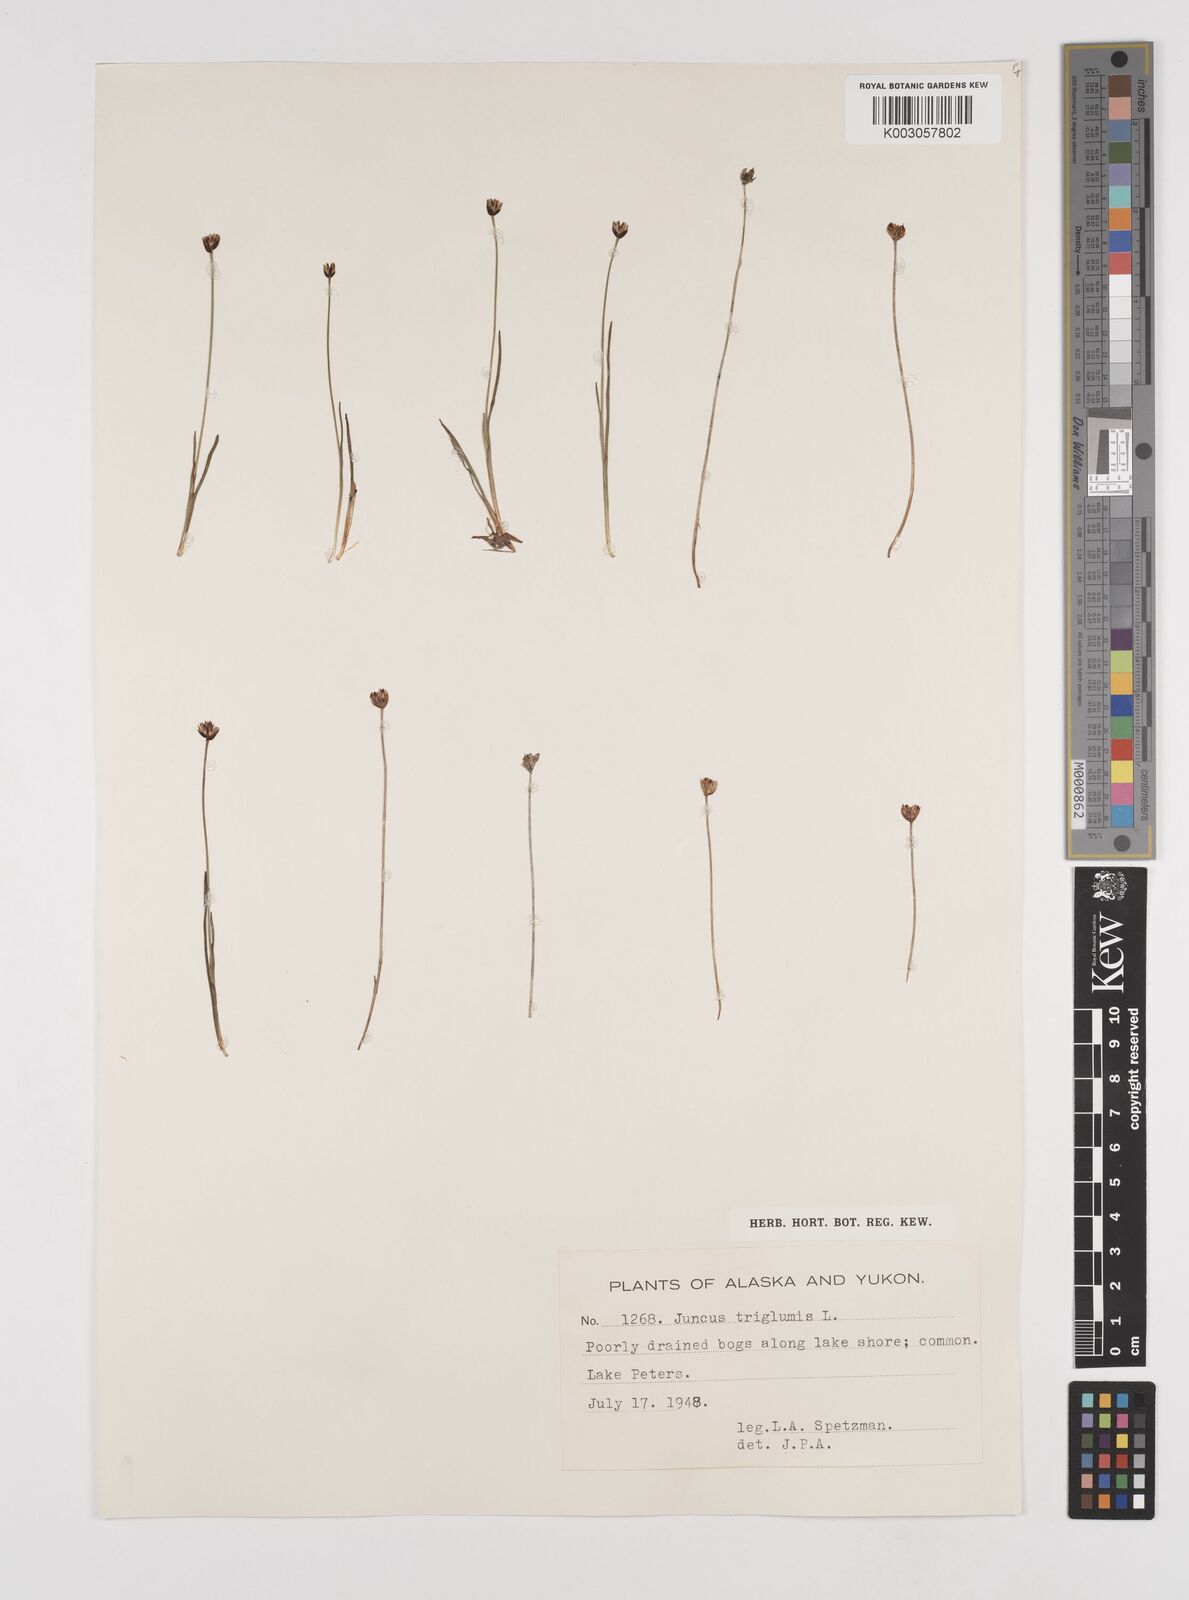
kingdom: Plantae
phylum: Tracheophyta
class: Liliopsida
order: Poales
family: Juncaceae
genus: Juncus
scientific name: Juncus triglumis
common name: Three-flowered rush
